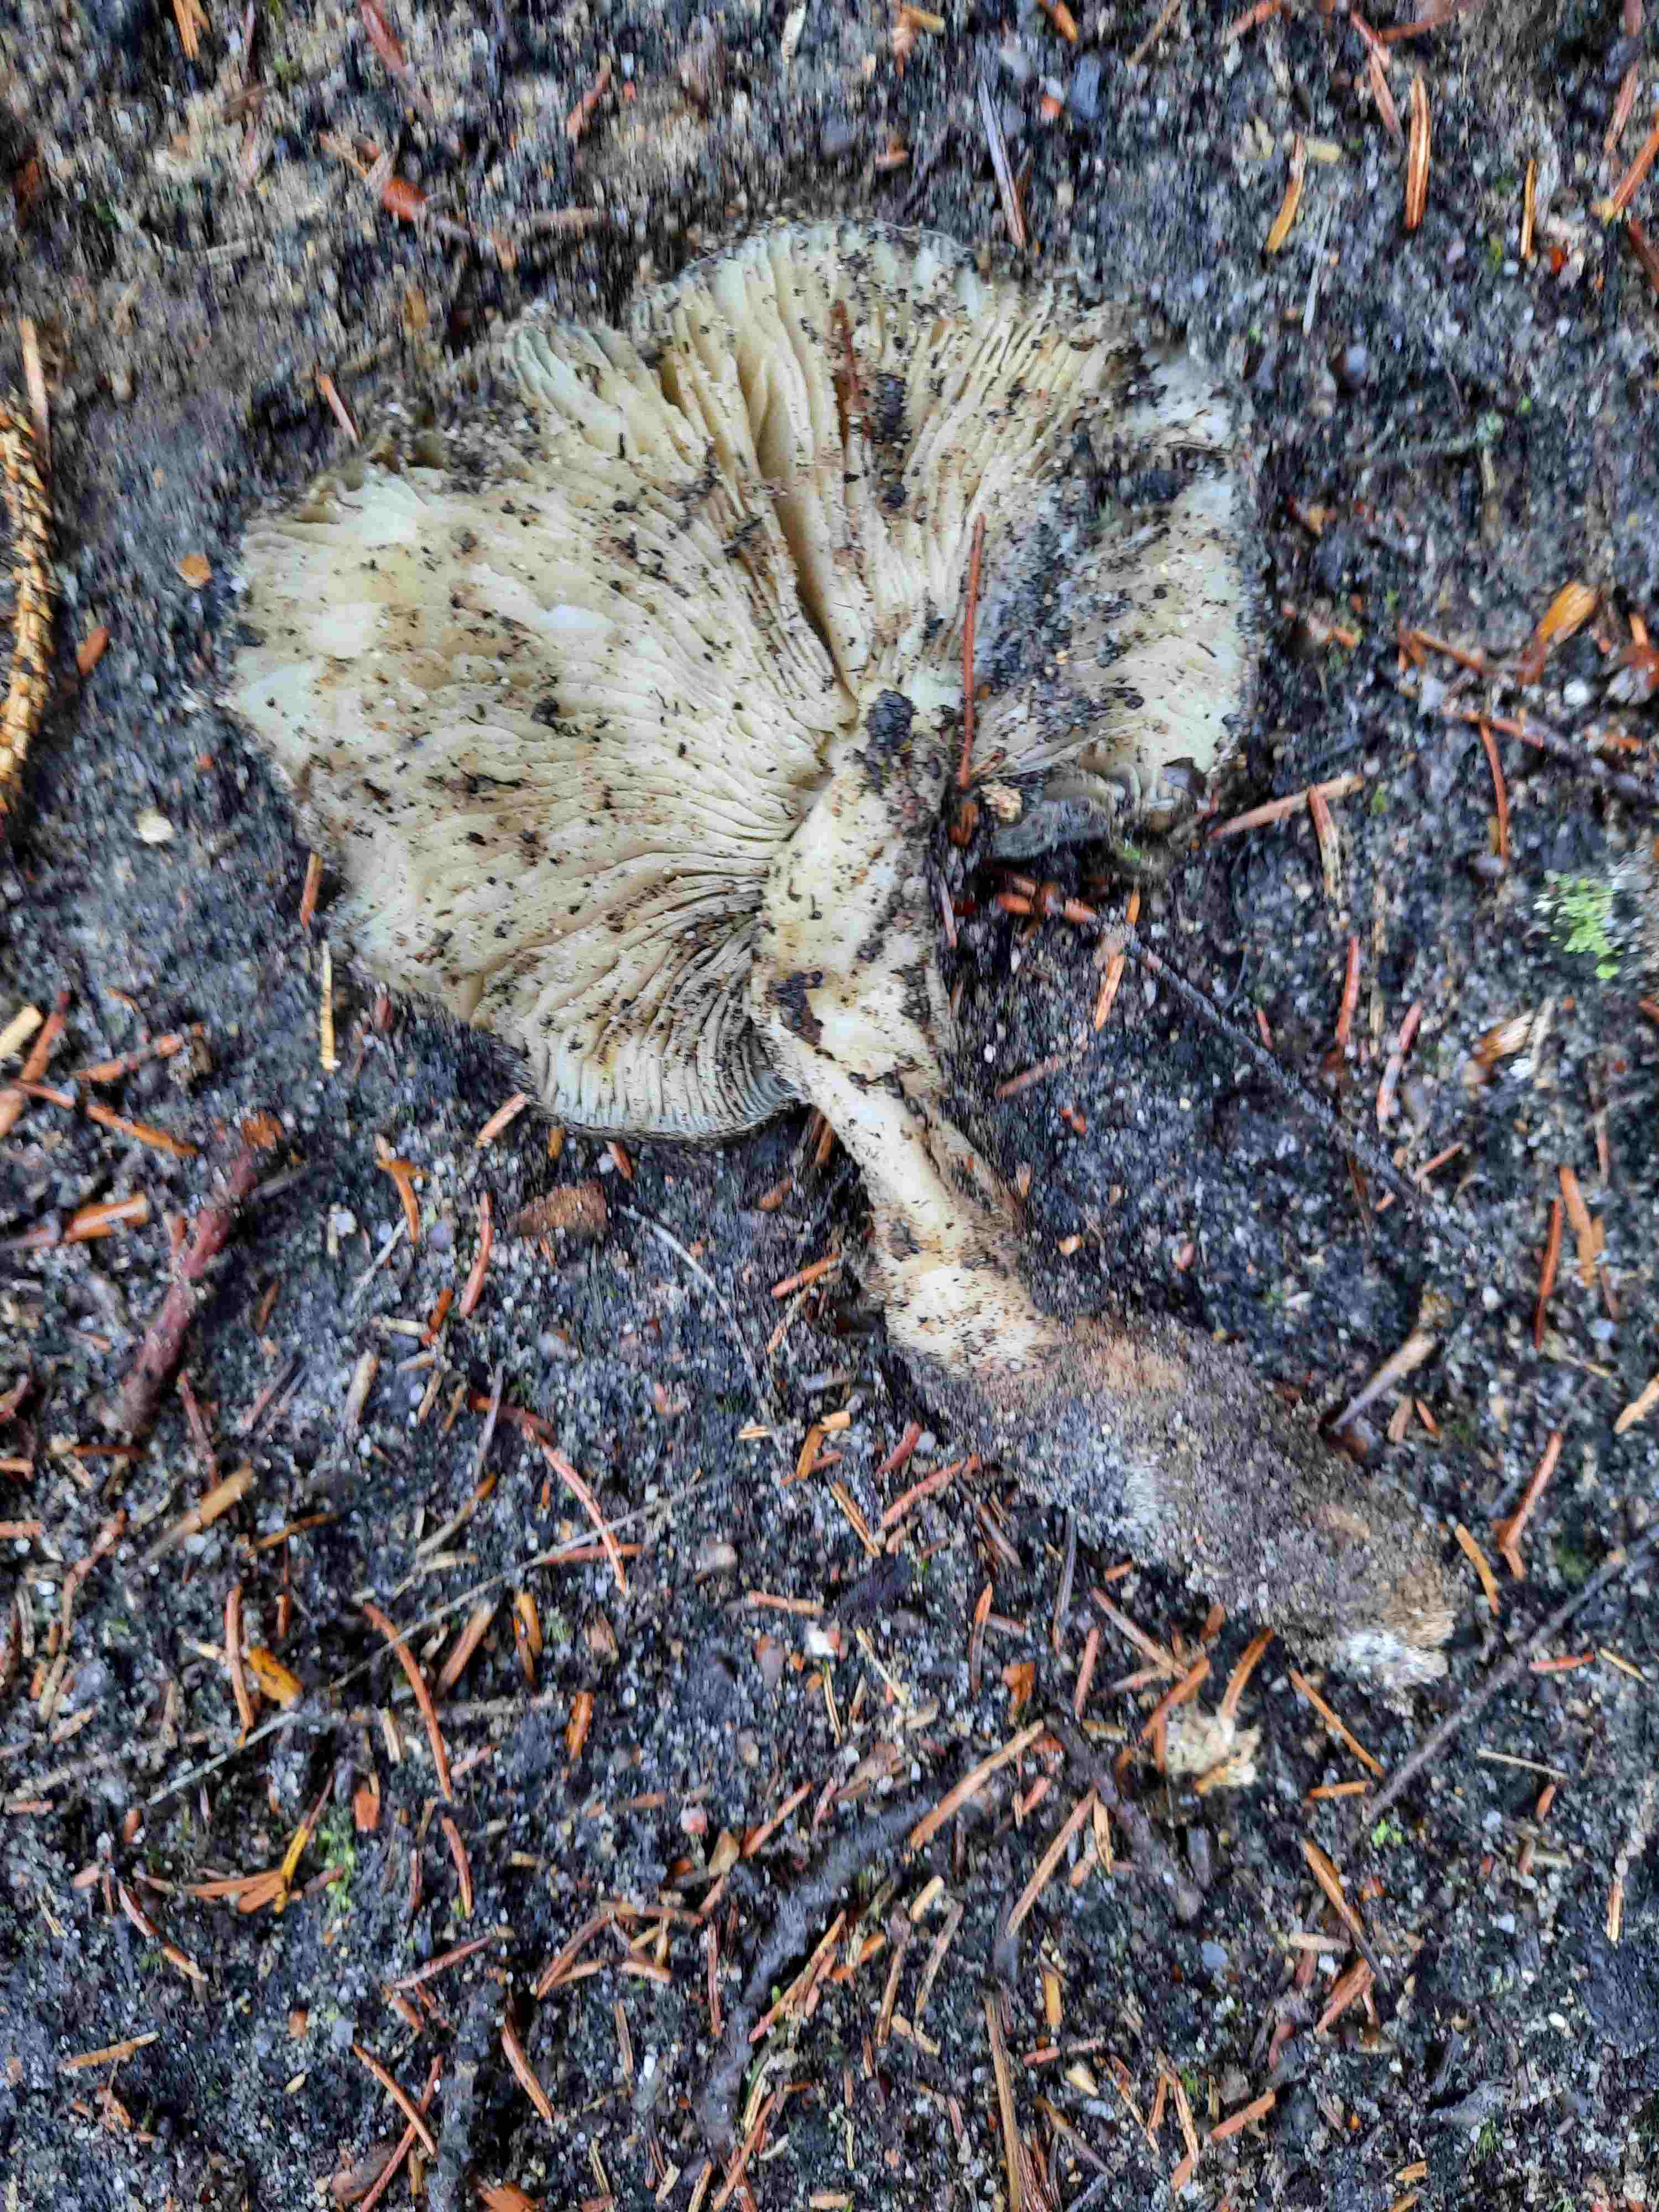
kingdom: Fungi
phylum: Basidiomycota
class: Agaricomycetes
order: Agaricales
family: Tricholomataceae
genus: Tricholoma
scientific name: Tricholoma portentosum
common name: grå ridderhat
